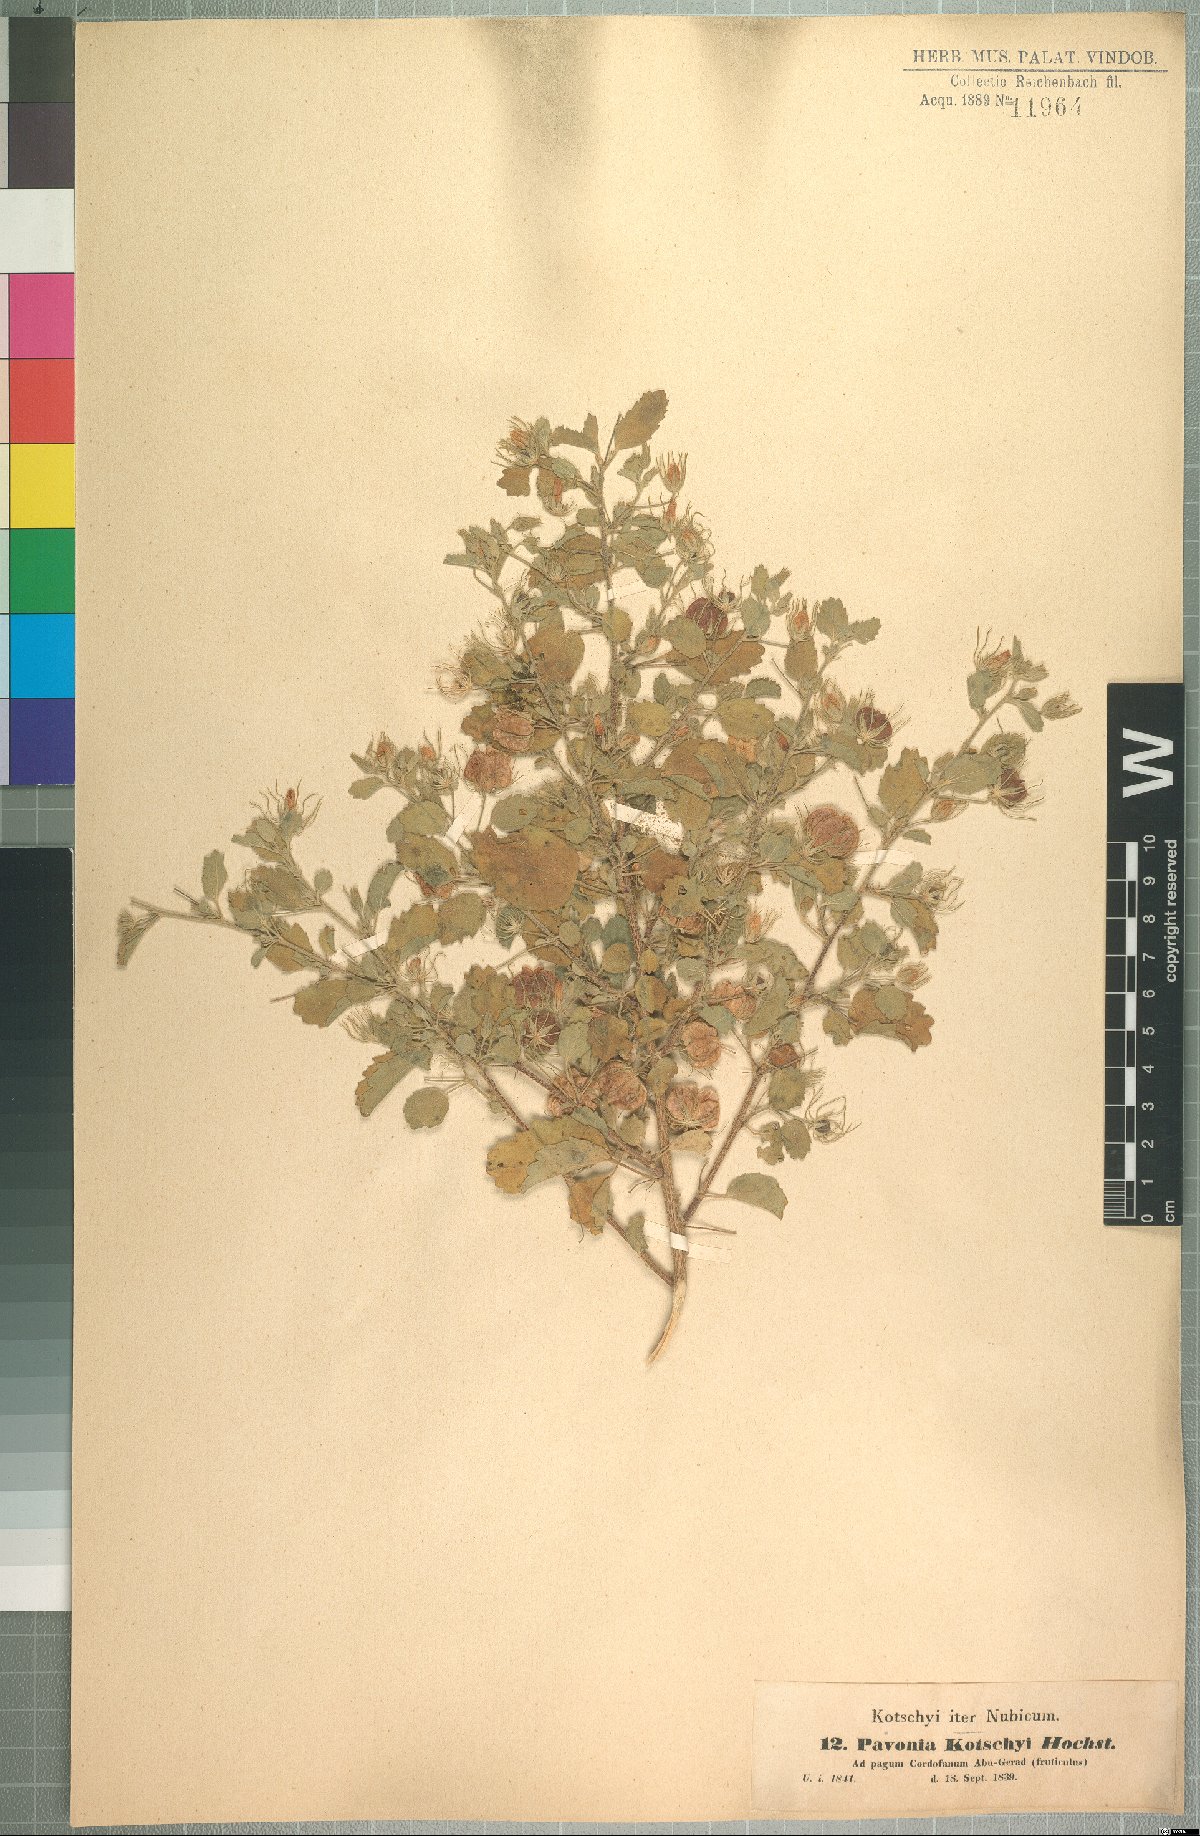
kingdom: Plantae
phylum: Tracheophyta
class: Magnoliopsida
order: Malvales
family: Malvaceae
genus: Pavonia
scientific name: Pavonia kotschyi
